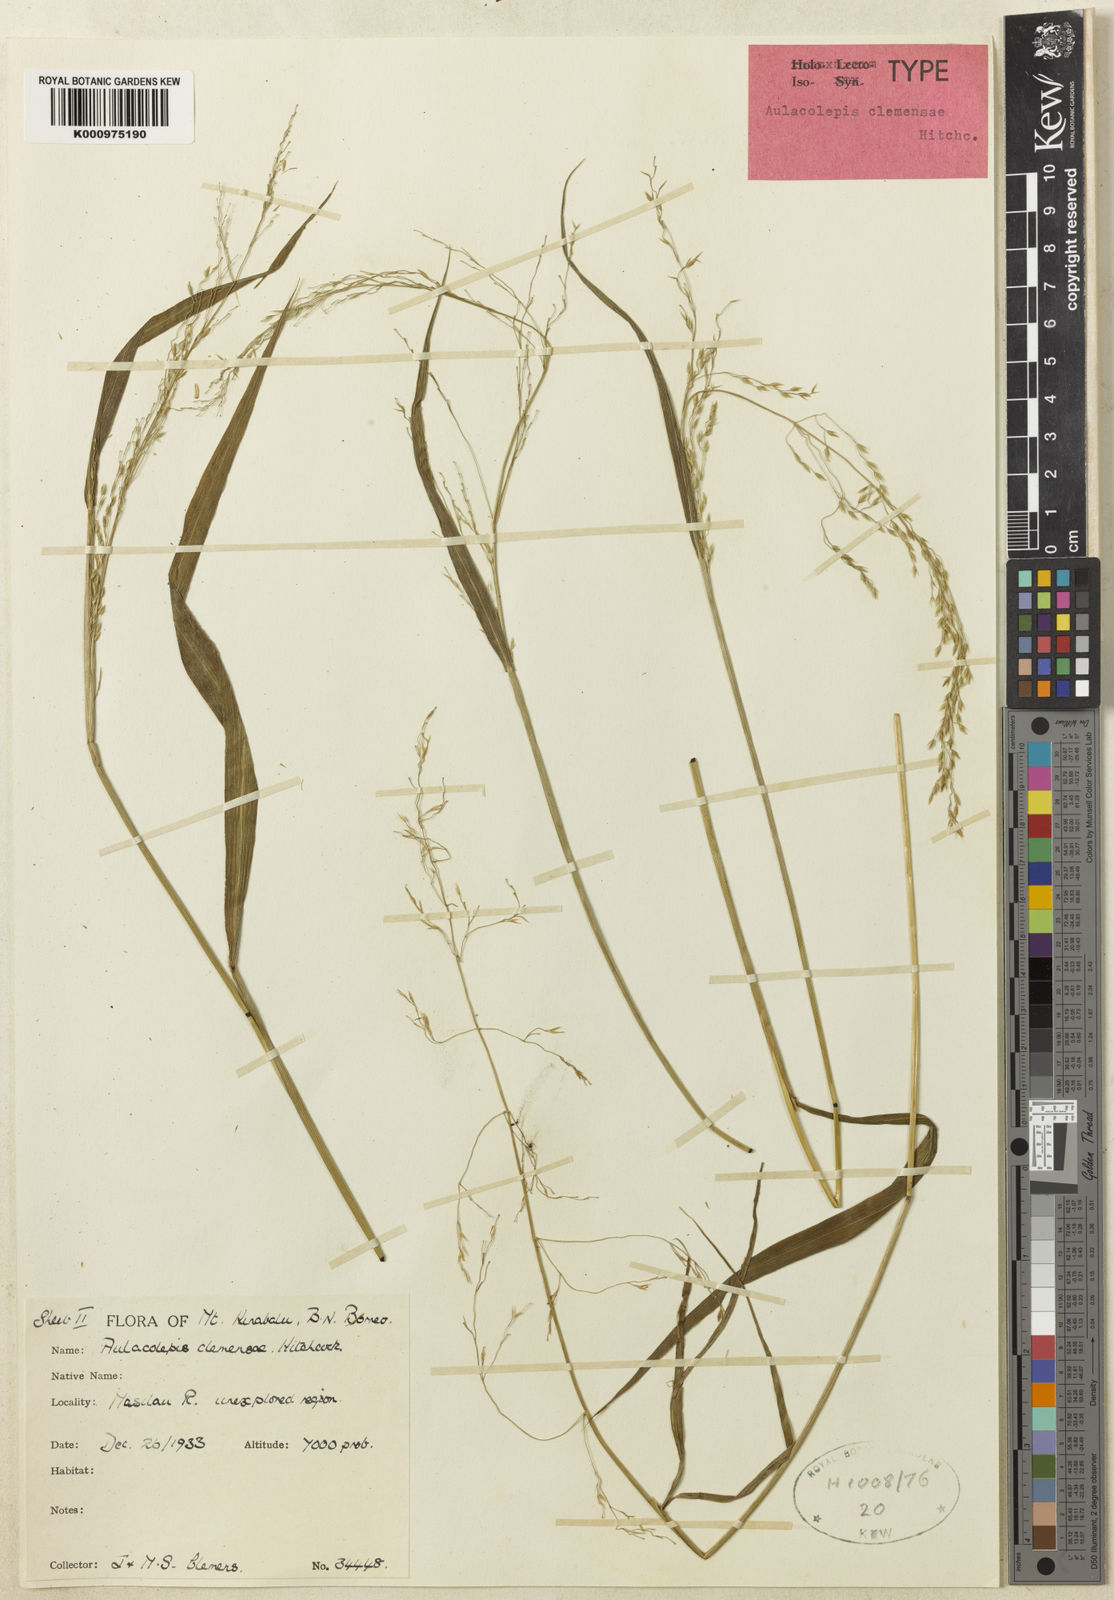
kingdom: Plantae
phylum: Tracheophyta
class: Liliopsida
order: Poales
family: Poaceae
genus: Aniselytron
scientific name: Aniselytron
